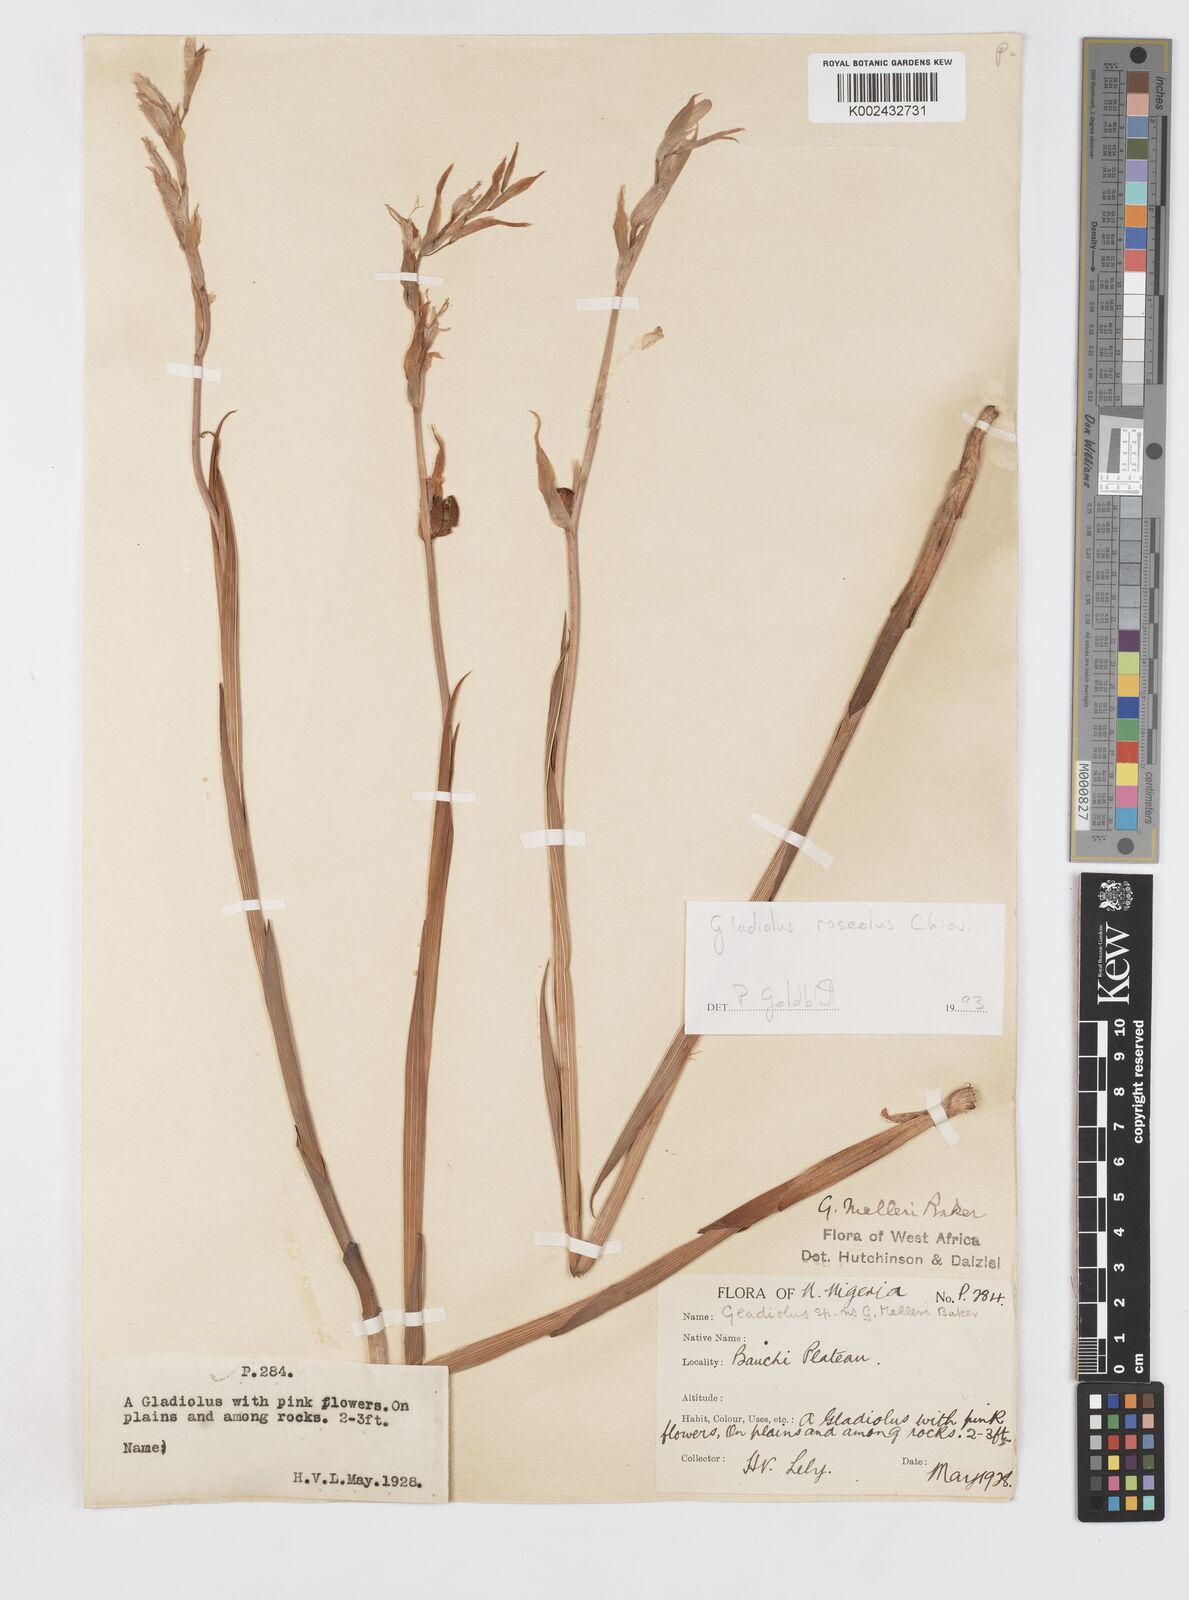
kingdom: Plantae
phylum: Tracheophyta
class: Liliopsida
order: Asparagales
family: Iridaceae
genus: Gladiolus
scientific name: Gladiolus roseolus
